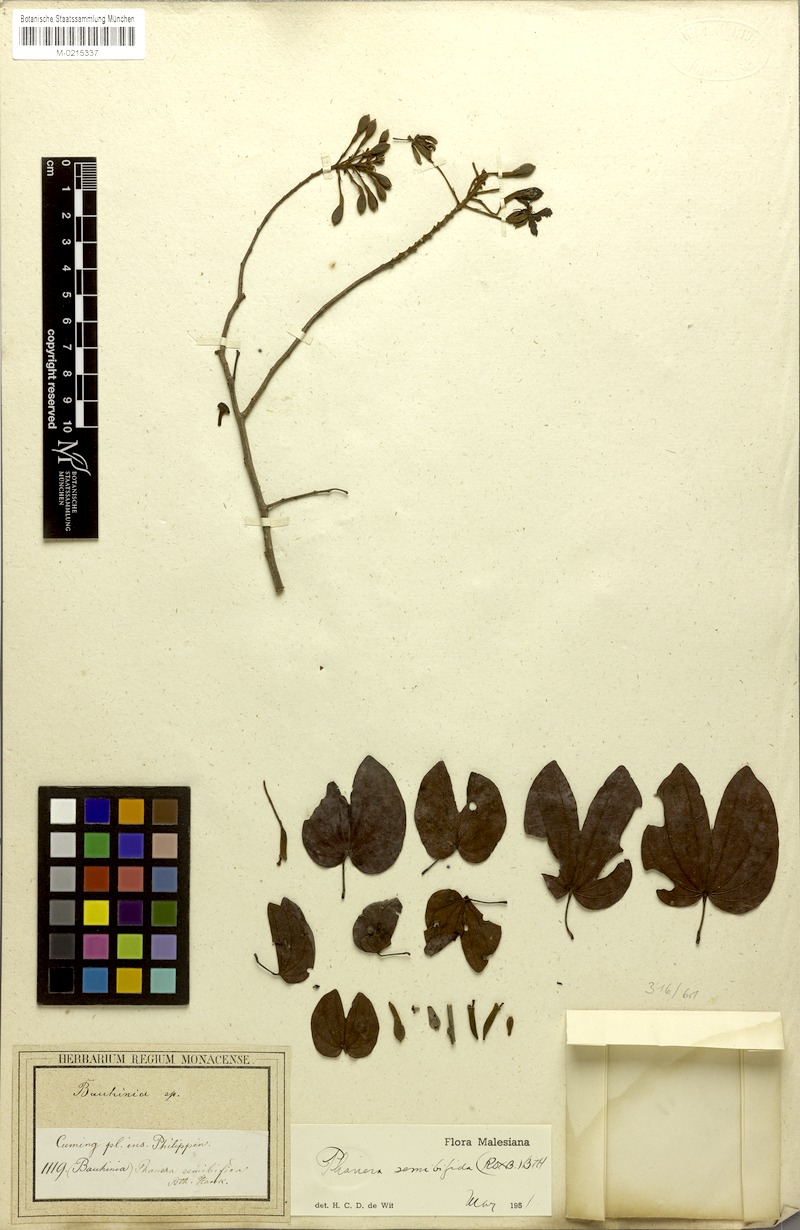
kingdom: Plantae
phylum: Tracheophyta
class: Magnoliopsida
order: Fabales
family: Fabaceae
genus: Phanera
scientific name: Phanera lingua
